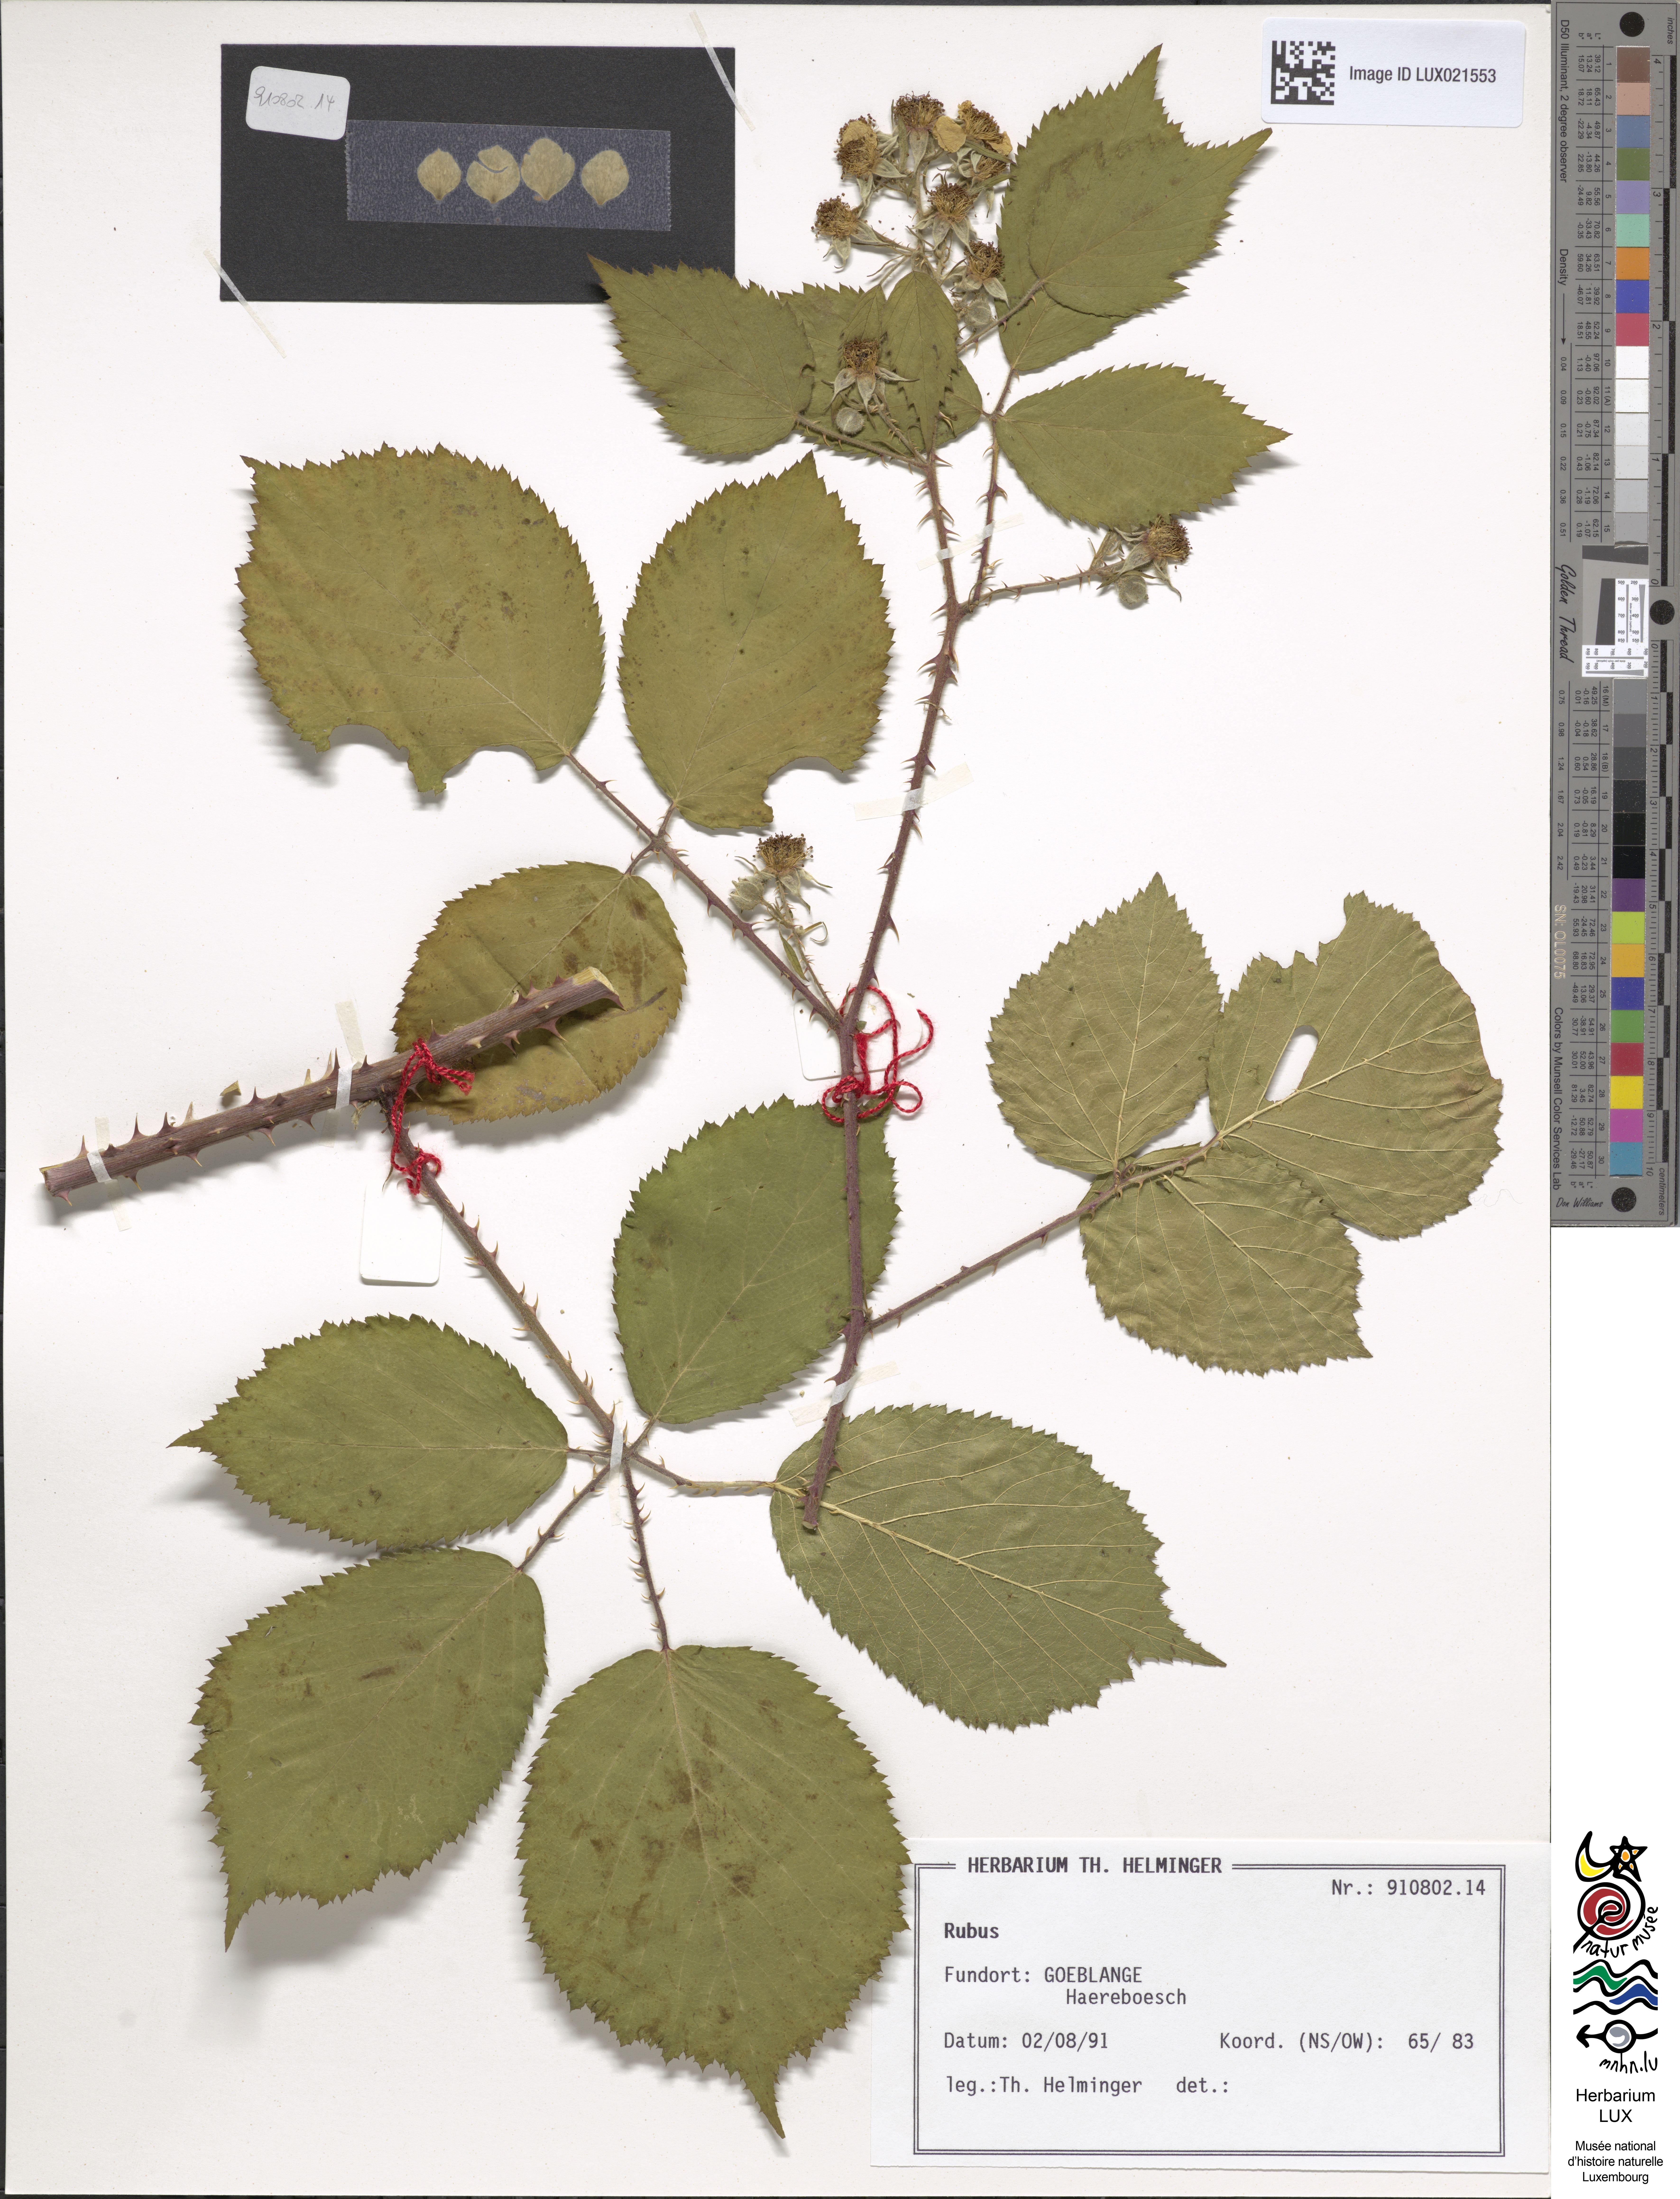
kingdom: Plantae
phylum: Tracheophyta
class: Magnoliopsida
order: Rosales
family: Rosaceae
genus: Rubus
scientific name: Rubus
